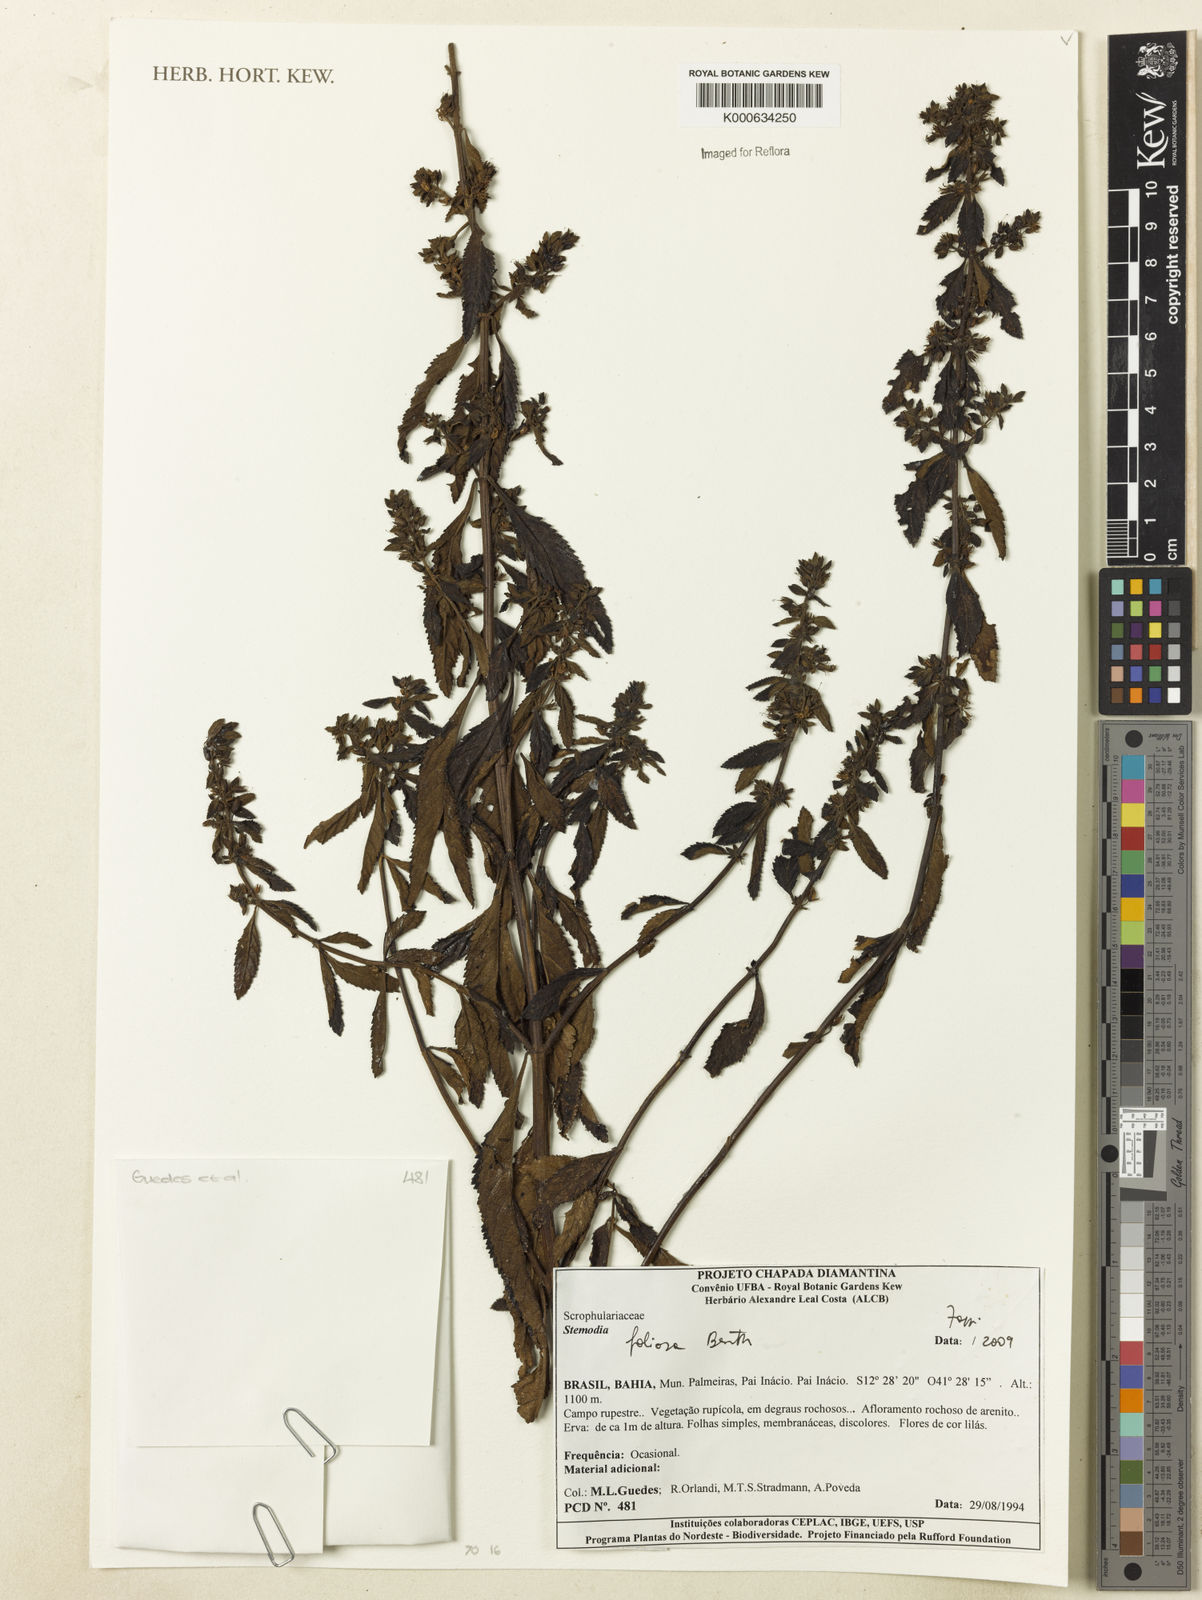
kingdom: Plantae
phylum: Tracheophyta
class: Magnoliopsida
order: Lamiales
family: Plantaginaceae
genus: Stemodia
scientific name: Stemodia foliosa
